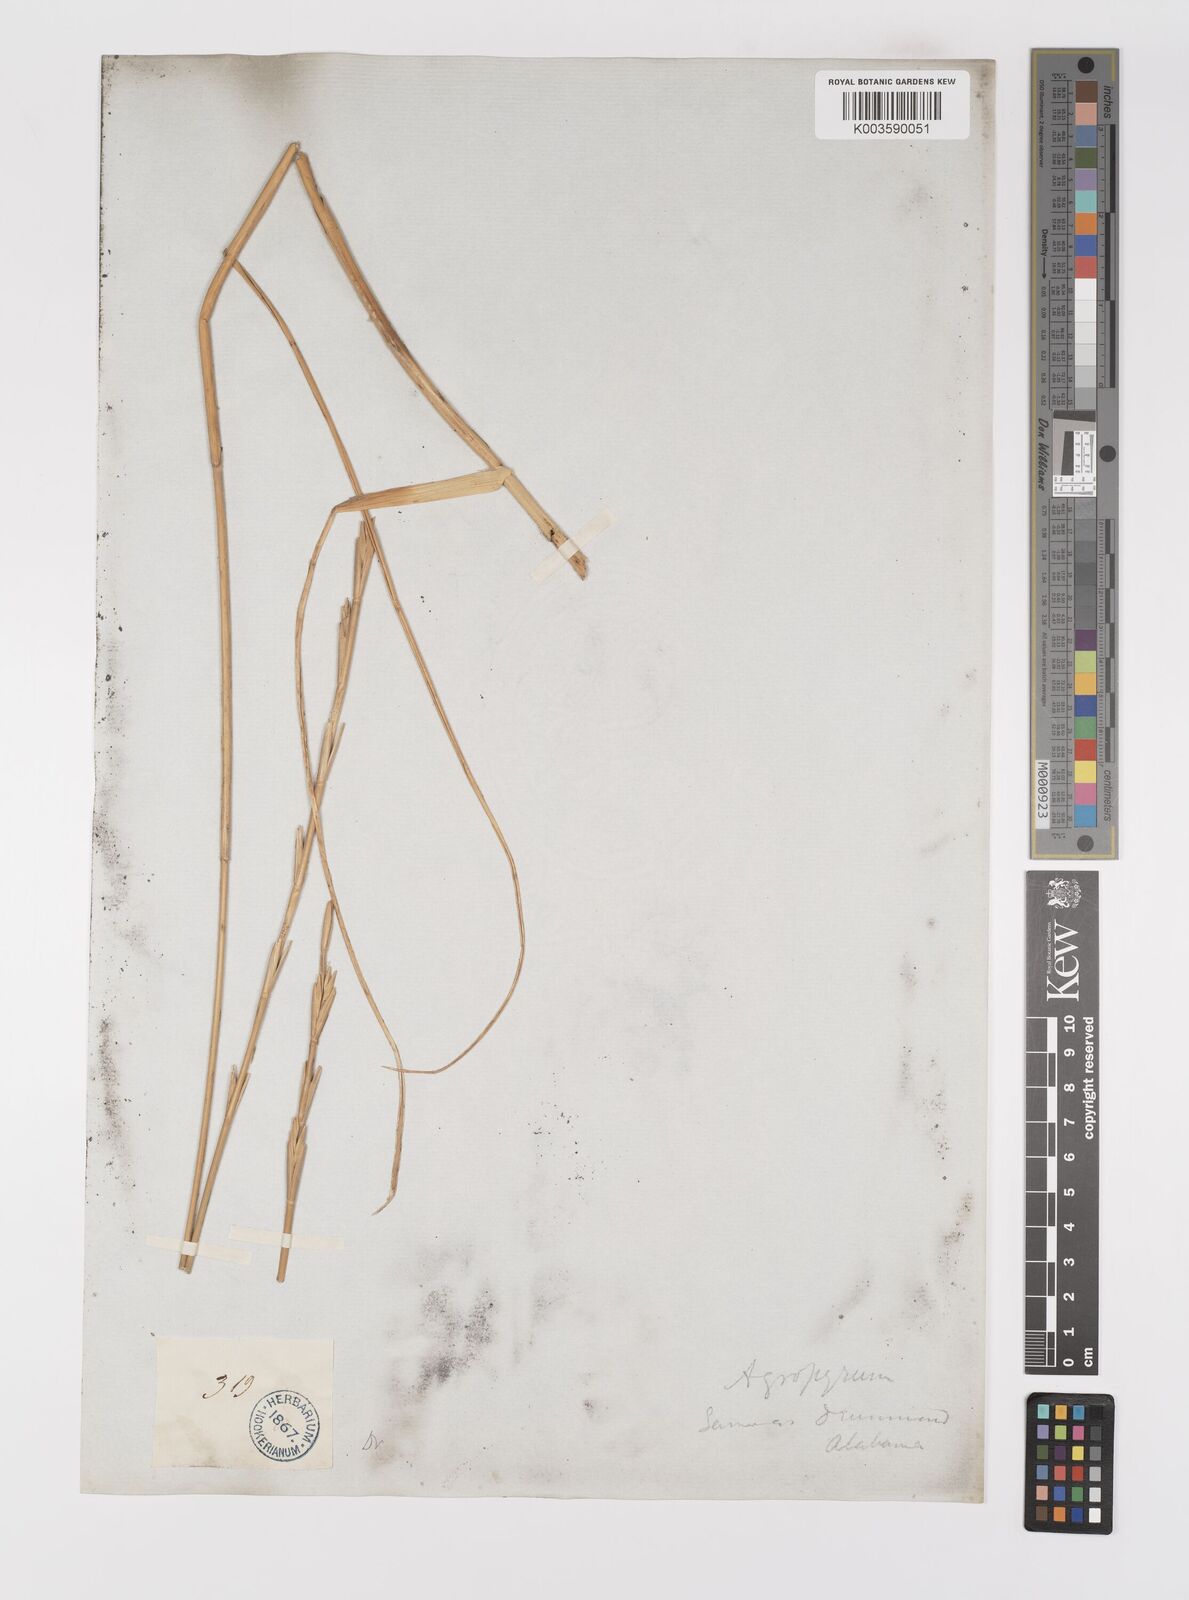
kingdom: Plantae
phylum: Tracheophyta
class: Liliopsida
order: Poales
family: Poaceae
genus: Elymus
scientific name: Elymus repens
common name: Quackgrass
